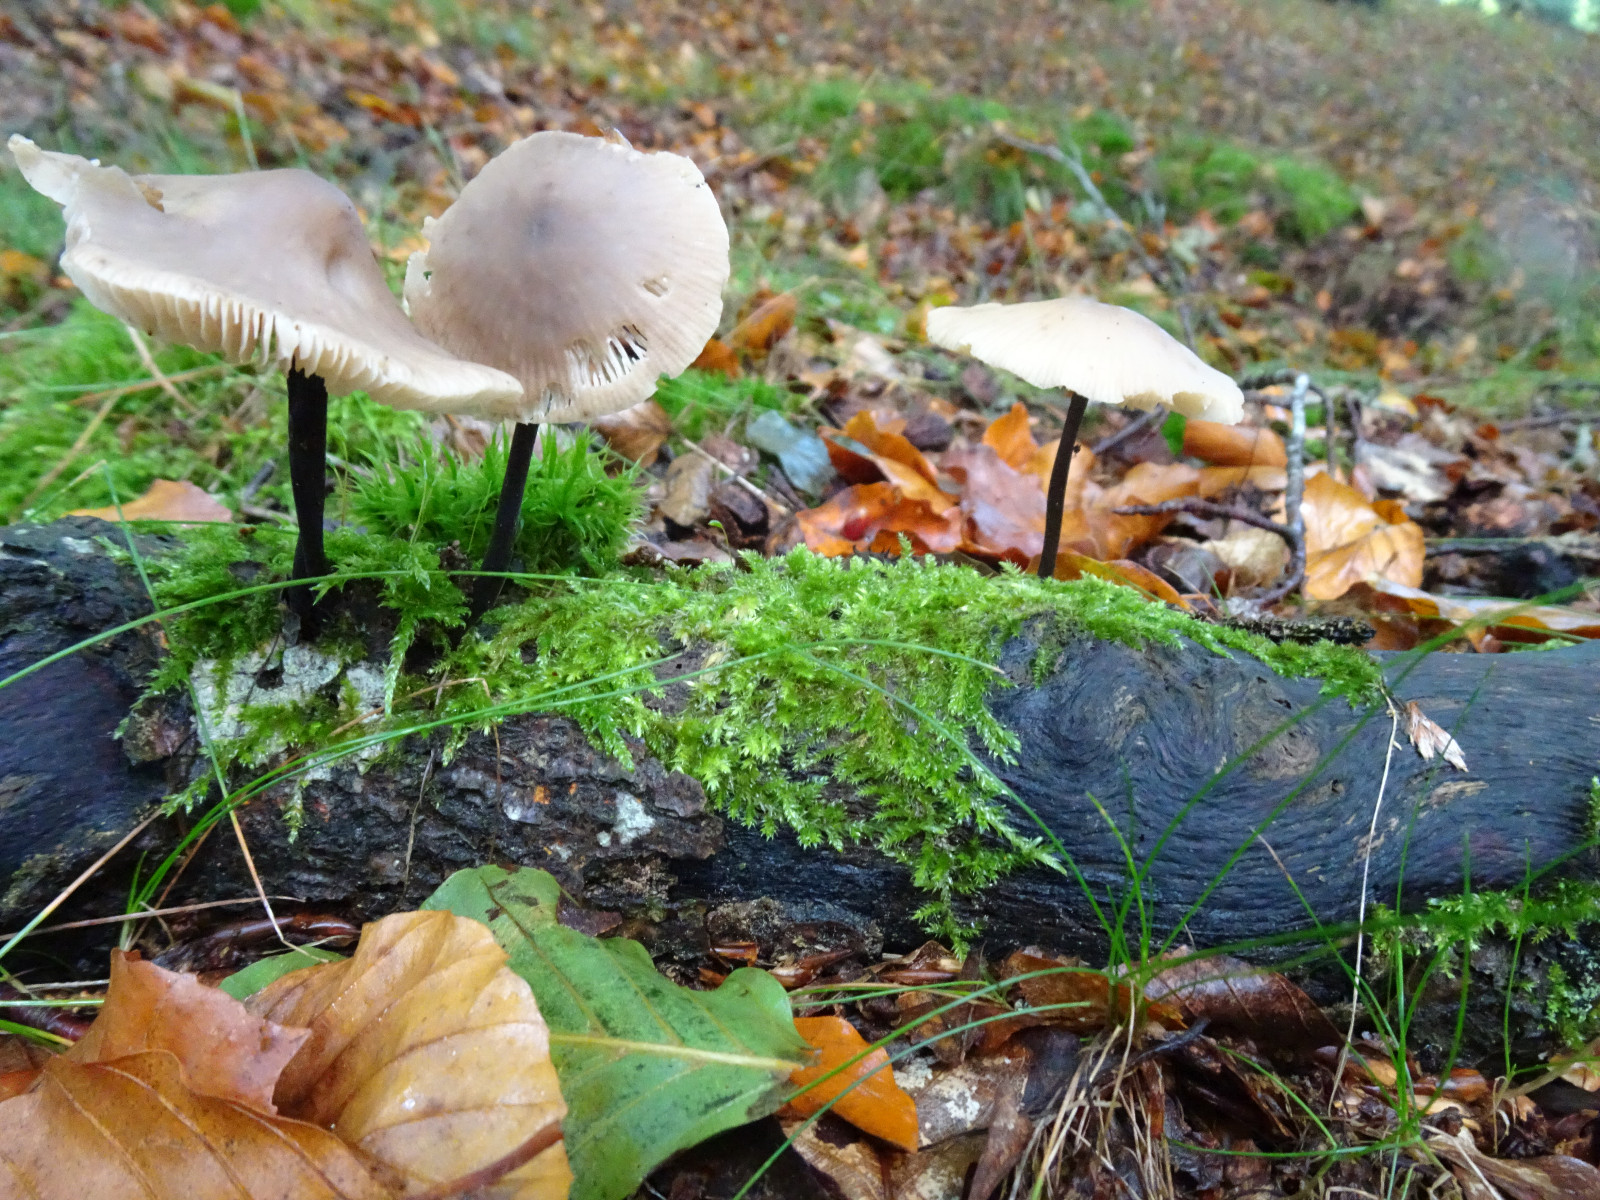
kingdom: Fungi
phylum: Basidiomycota
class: Agaricomycetes
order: Agaricales
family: Omphalotaceae
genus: Mycetinis
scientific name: Mycetinis alliaceus
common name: stor løghat
